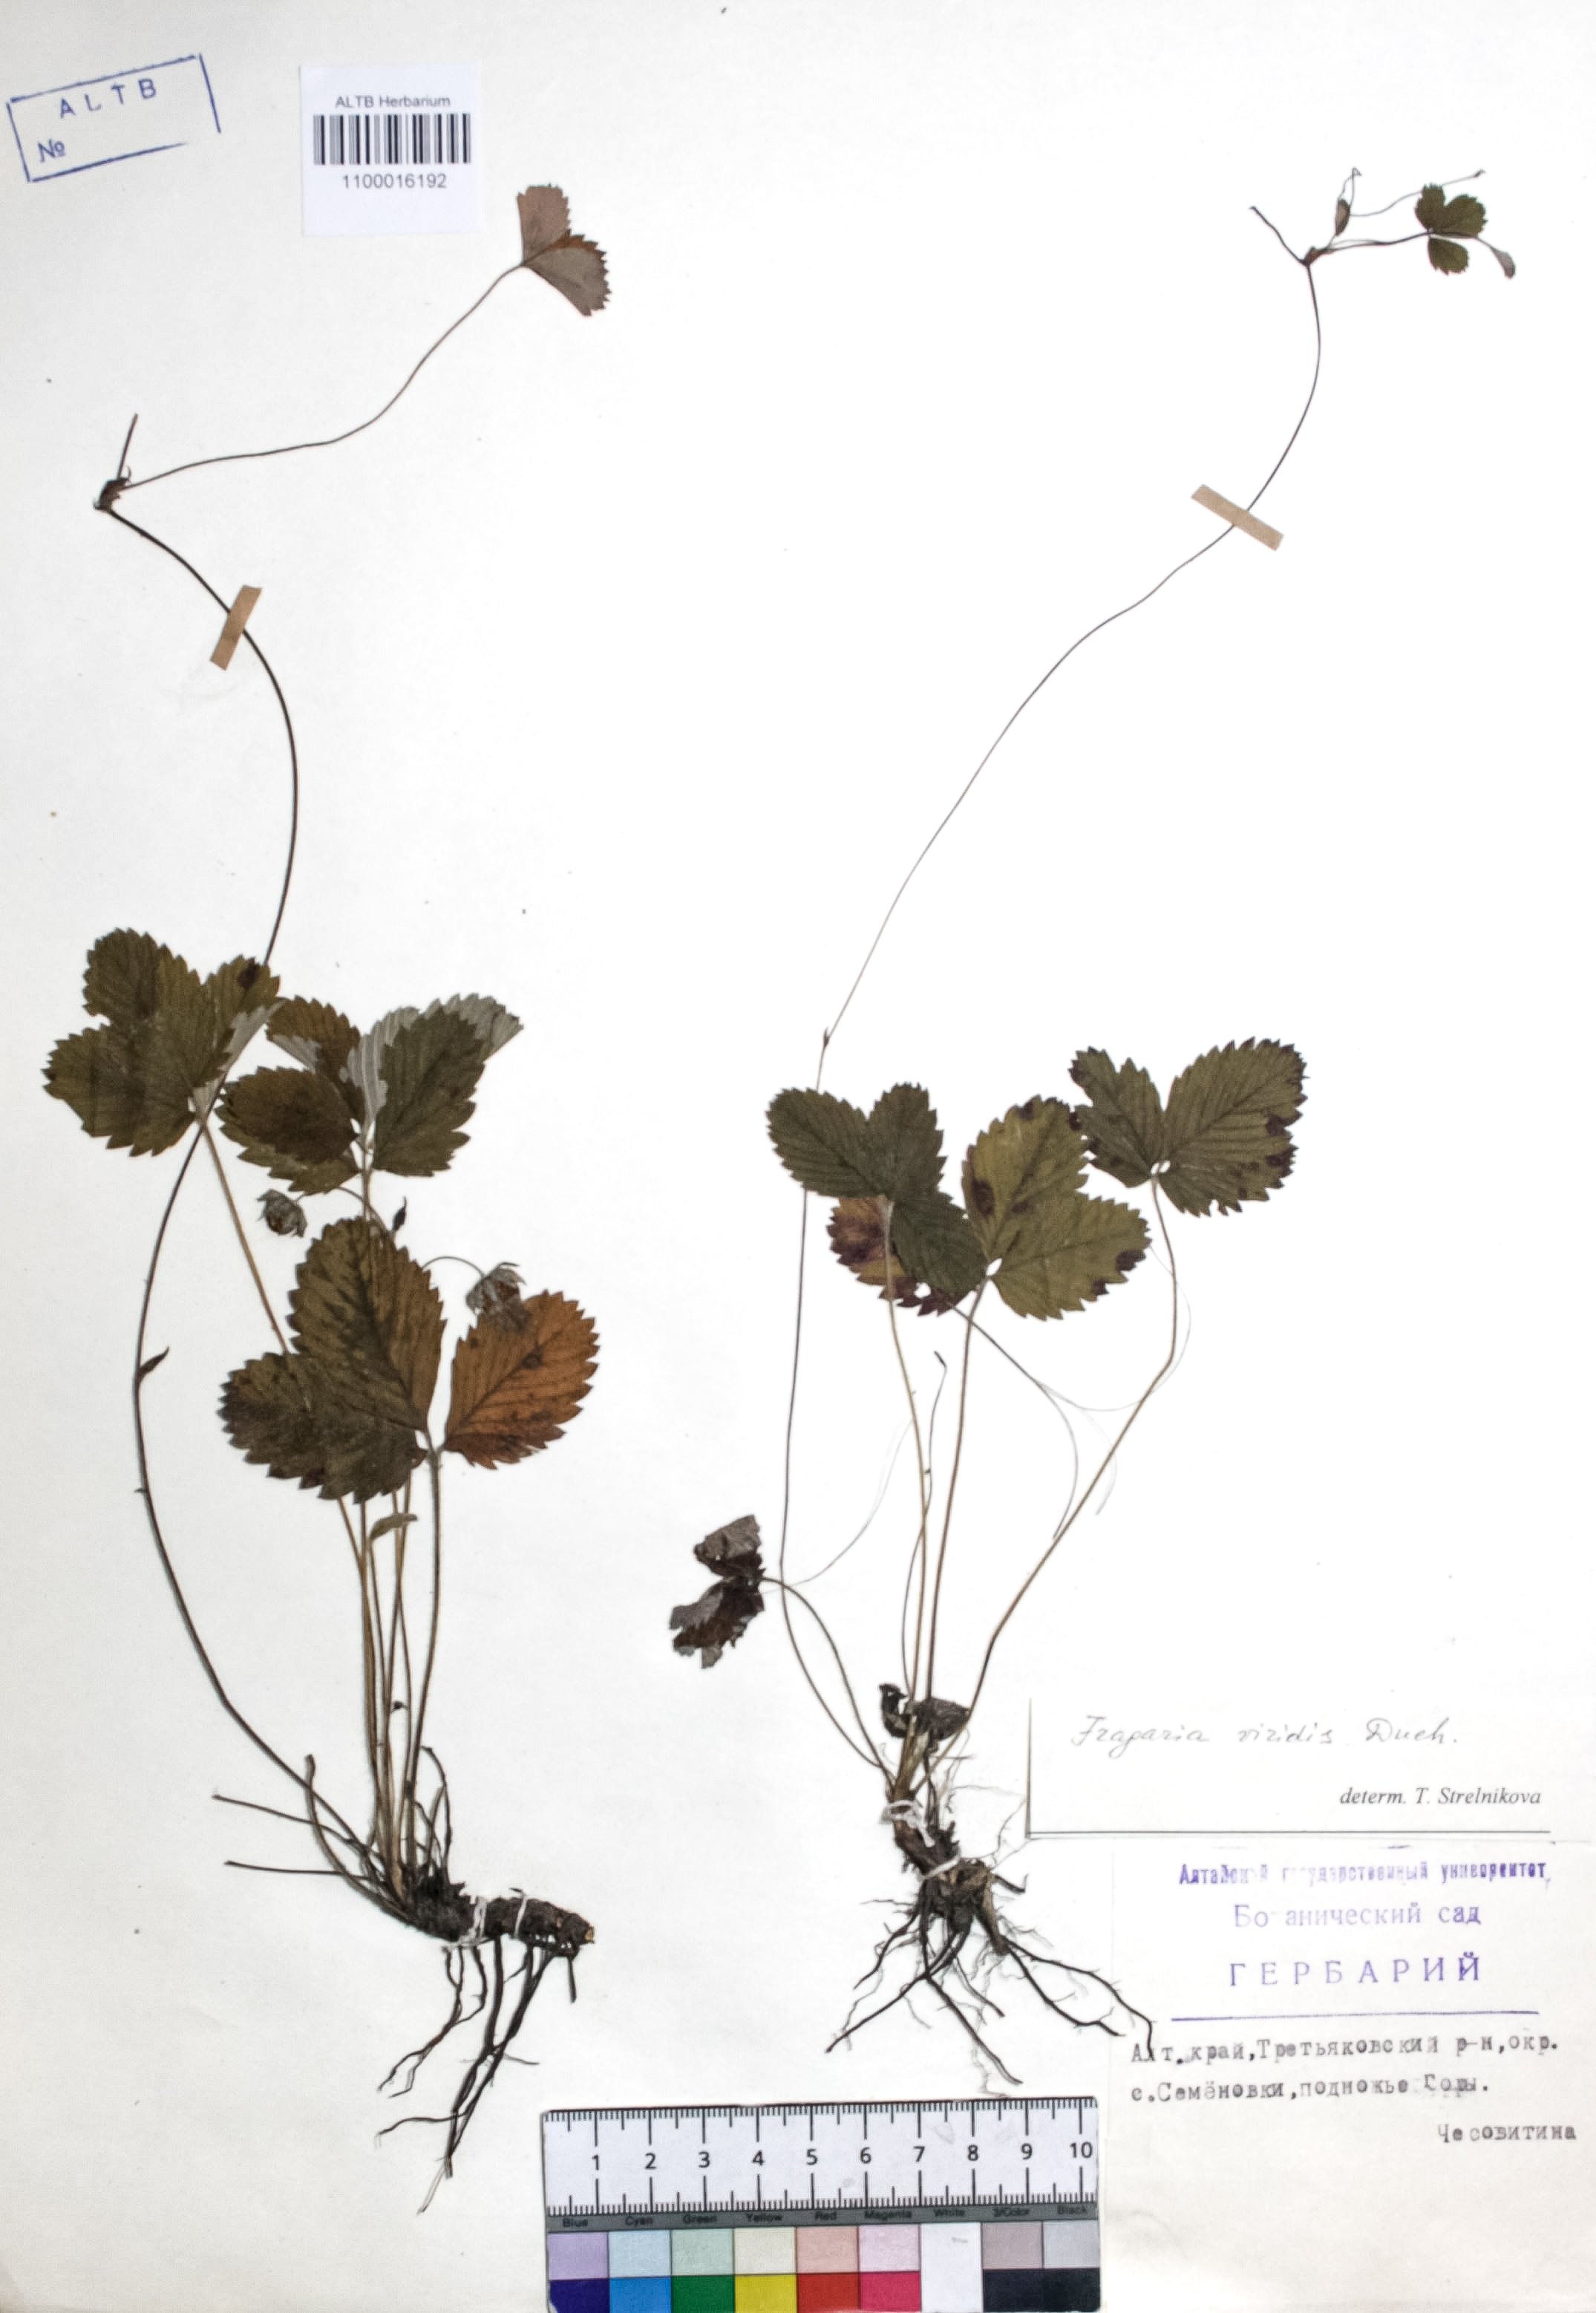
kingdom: Plantae
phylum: Tracheophyta
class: Magnoliopsida
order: Rosales
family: Rosaceae
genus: Fragaria
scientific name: Fragaria viridis
